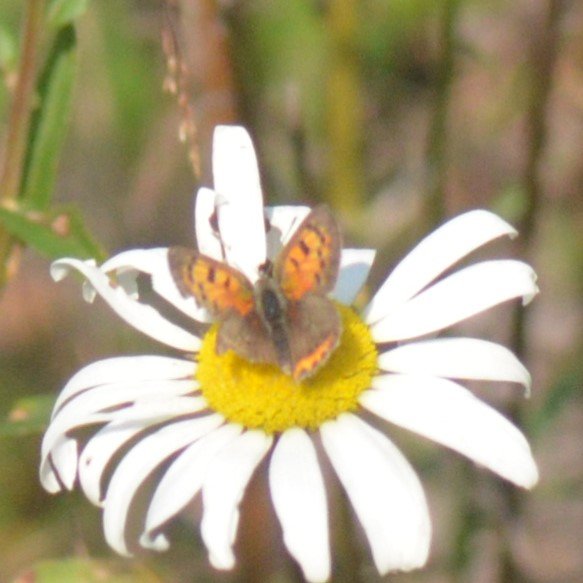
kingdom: Animalia
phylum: Arthropoda
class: Insecta
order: Lepidoptera
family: Lycaenidae
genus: Lycaena
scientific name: Lycaena phlaeas
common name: American Copper
